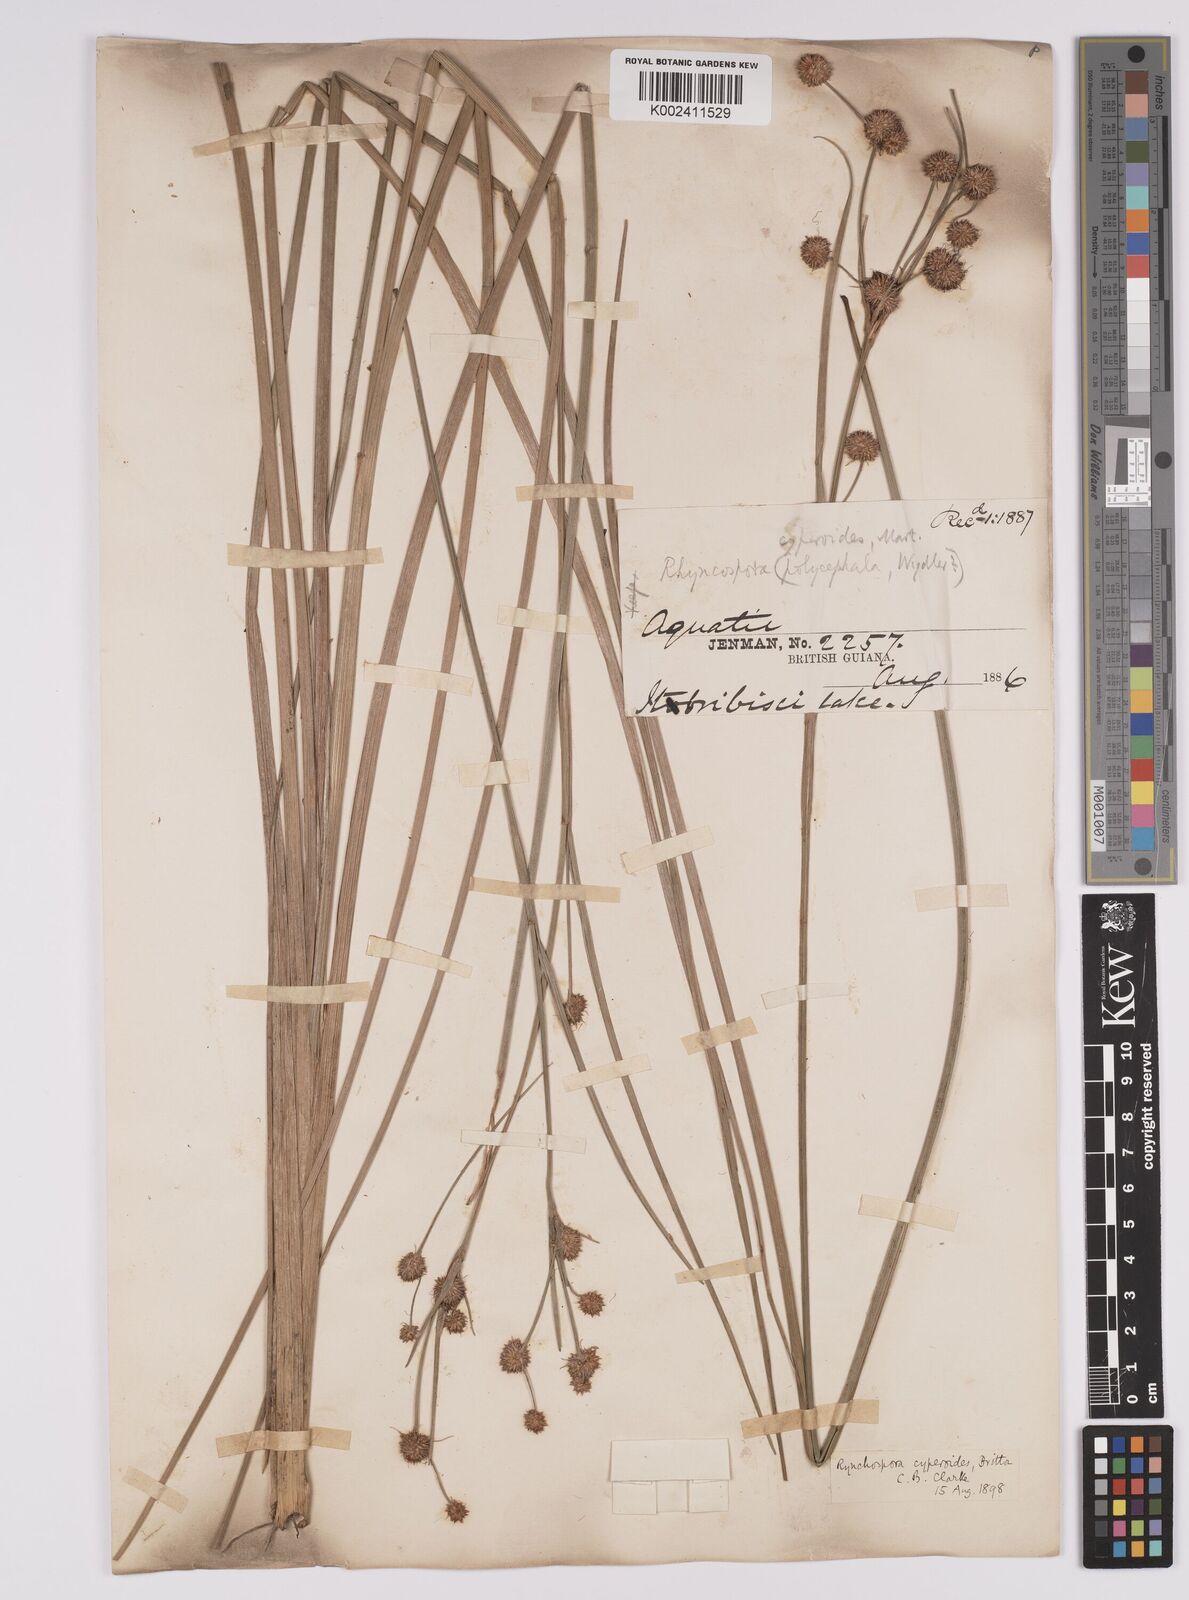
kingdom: Plantae
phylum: Tracheophyta
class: Liliopsida
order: Poales
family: Cyperaceae
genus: Rhynchospora
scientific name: Rhynchospora holoschoenoides
